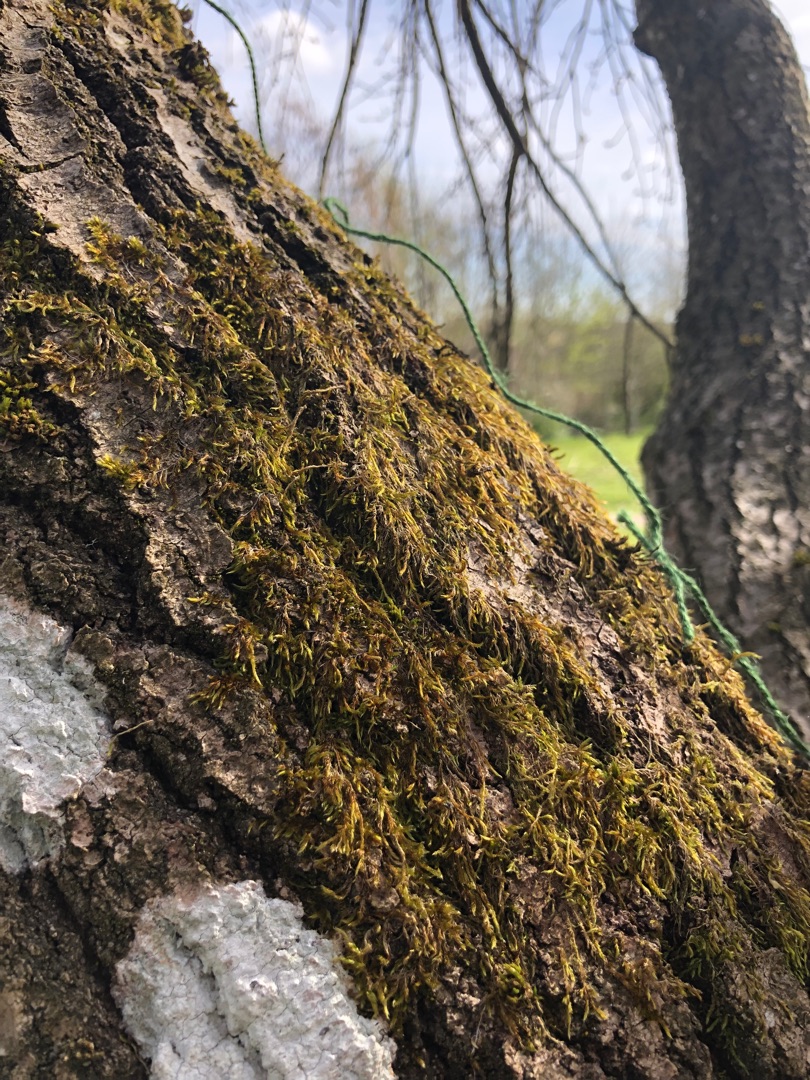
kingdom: Plantae
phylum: Bryophyta
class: Bryopsida
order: Hypnales
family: Hypnaceae
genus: Hypnum
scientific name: Hypnum cupressiforme
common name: Almindelig cypresmos
